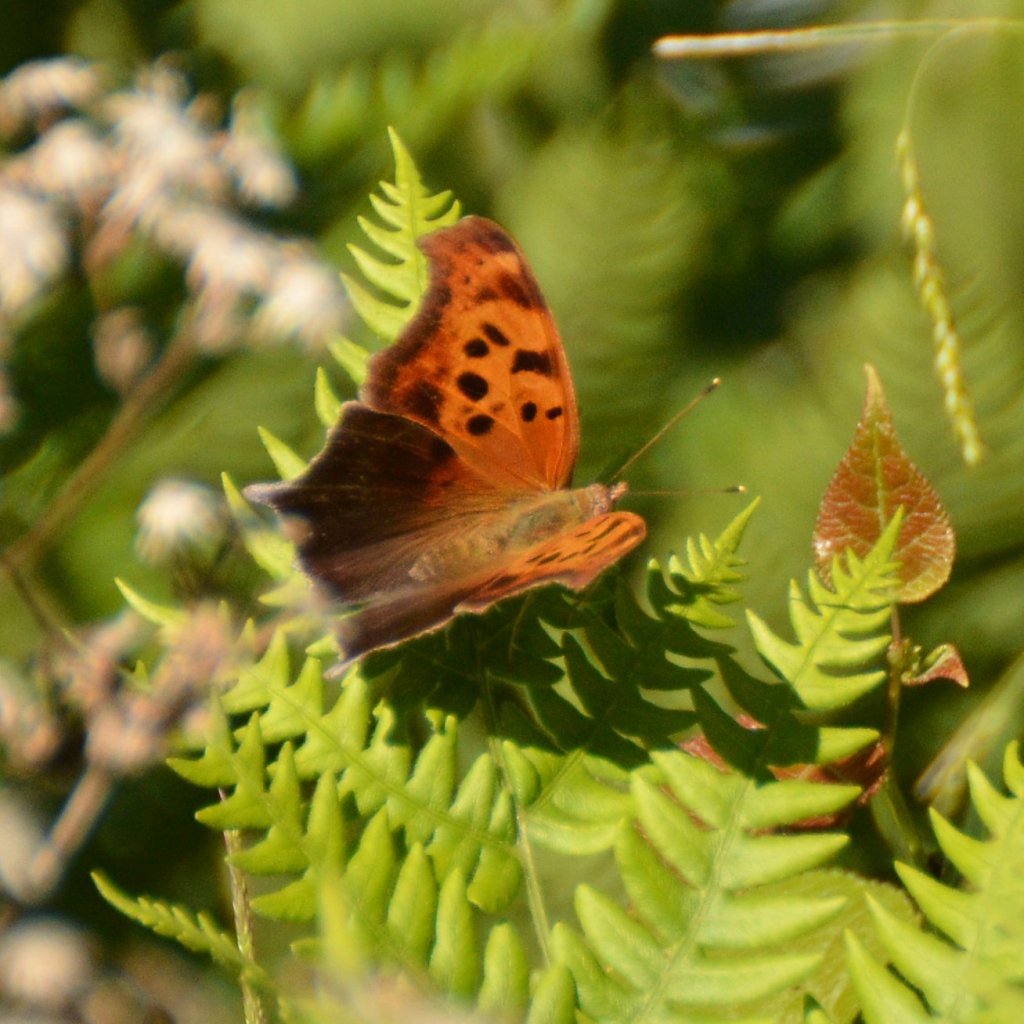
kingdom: Animalia
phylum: Arthropoda
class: Insecta
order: Lepidoptera
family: Nymphalidae
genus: Polygonia
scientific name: Polygonia interrogationis
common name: Question Mark
